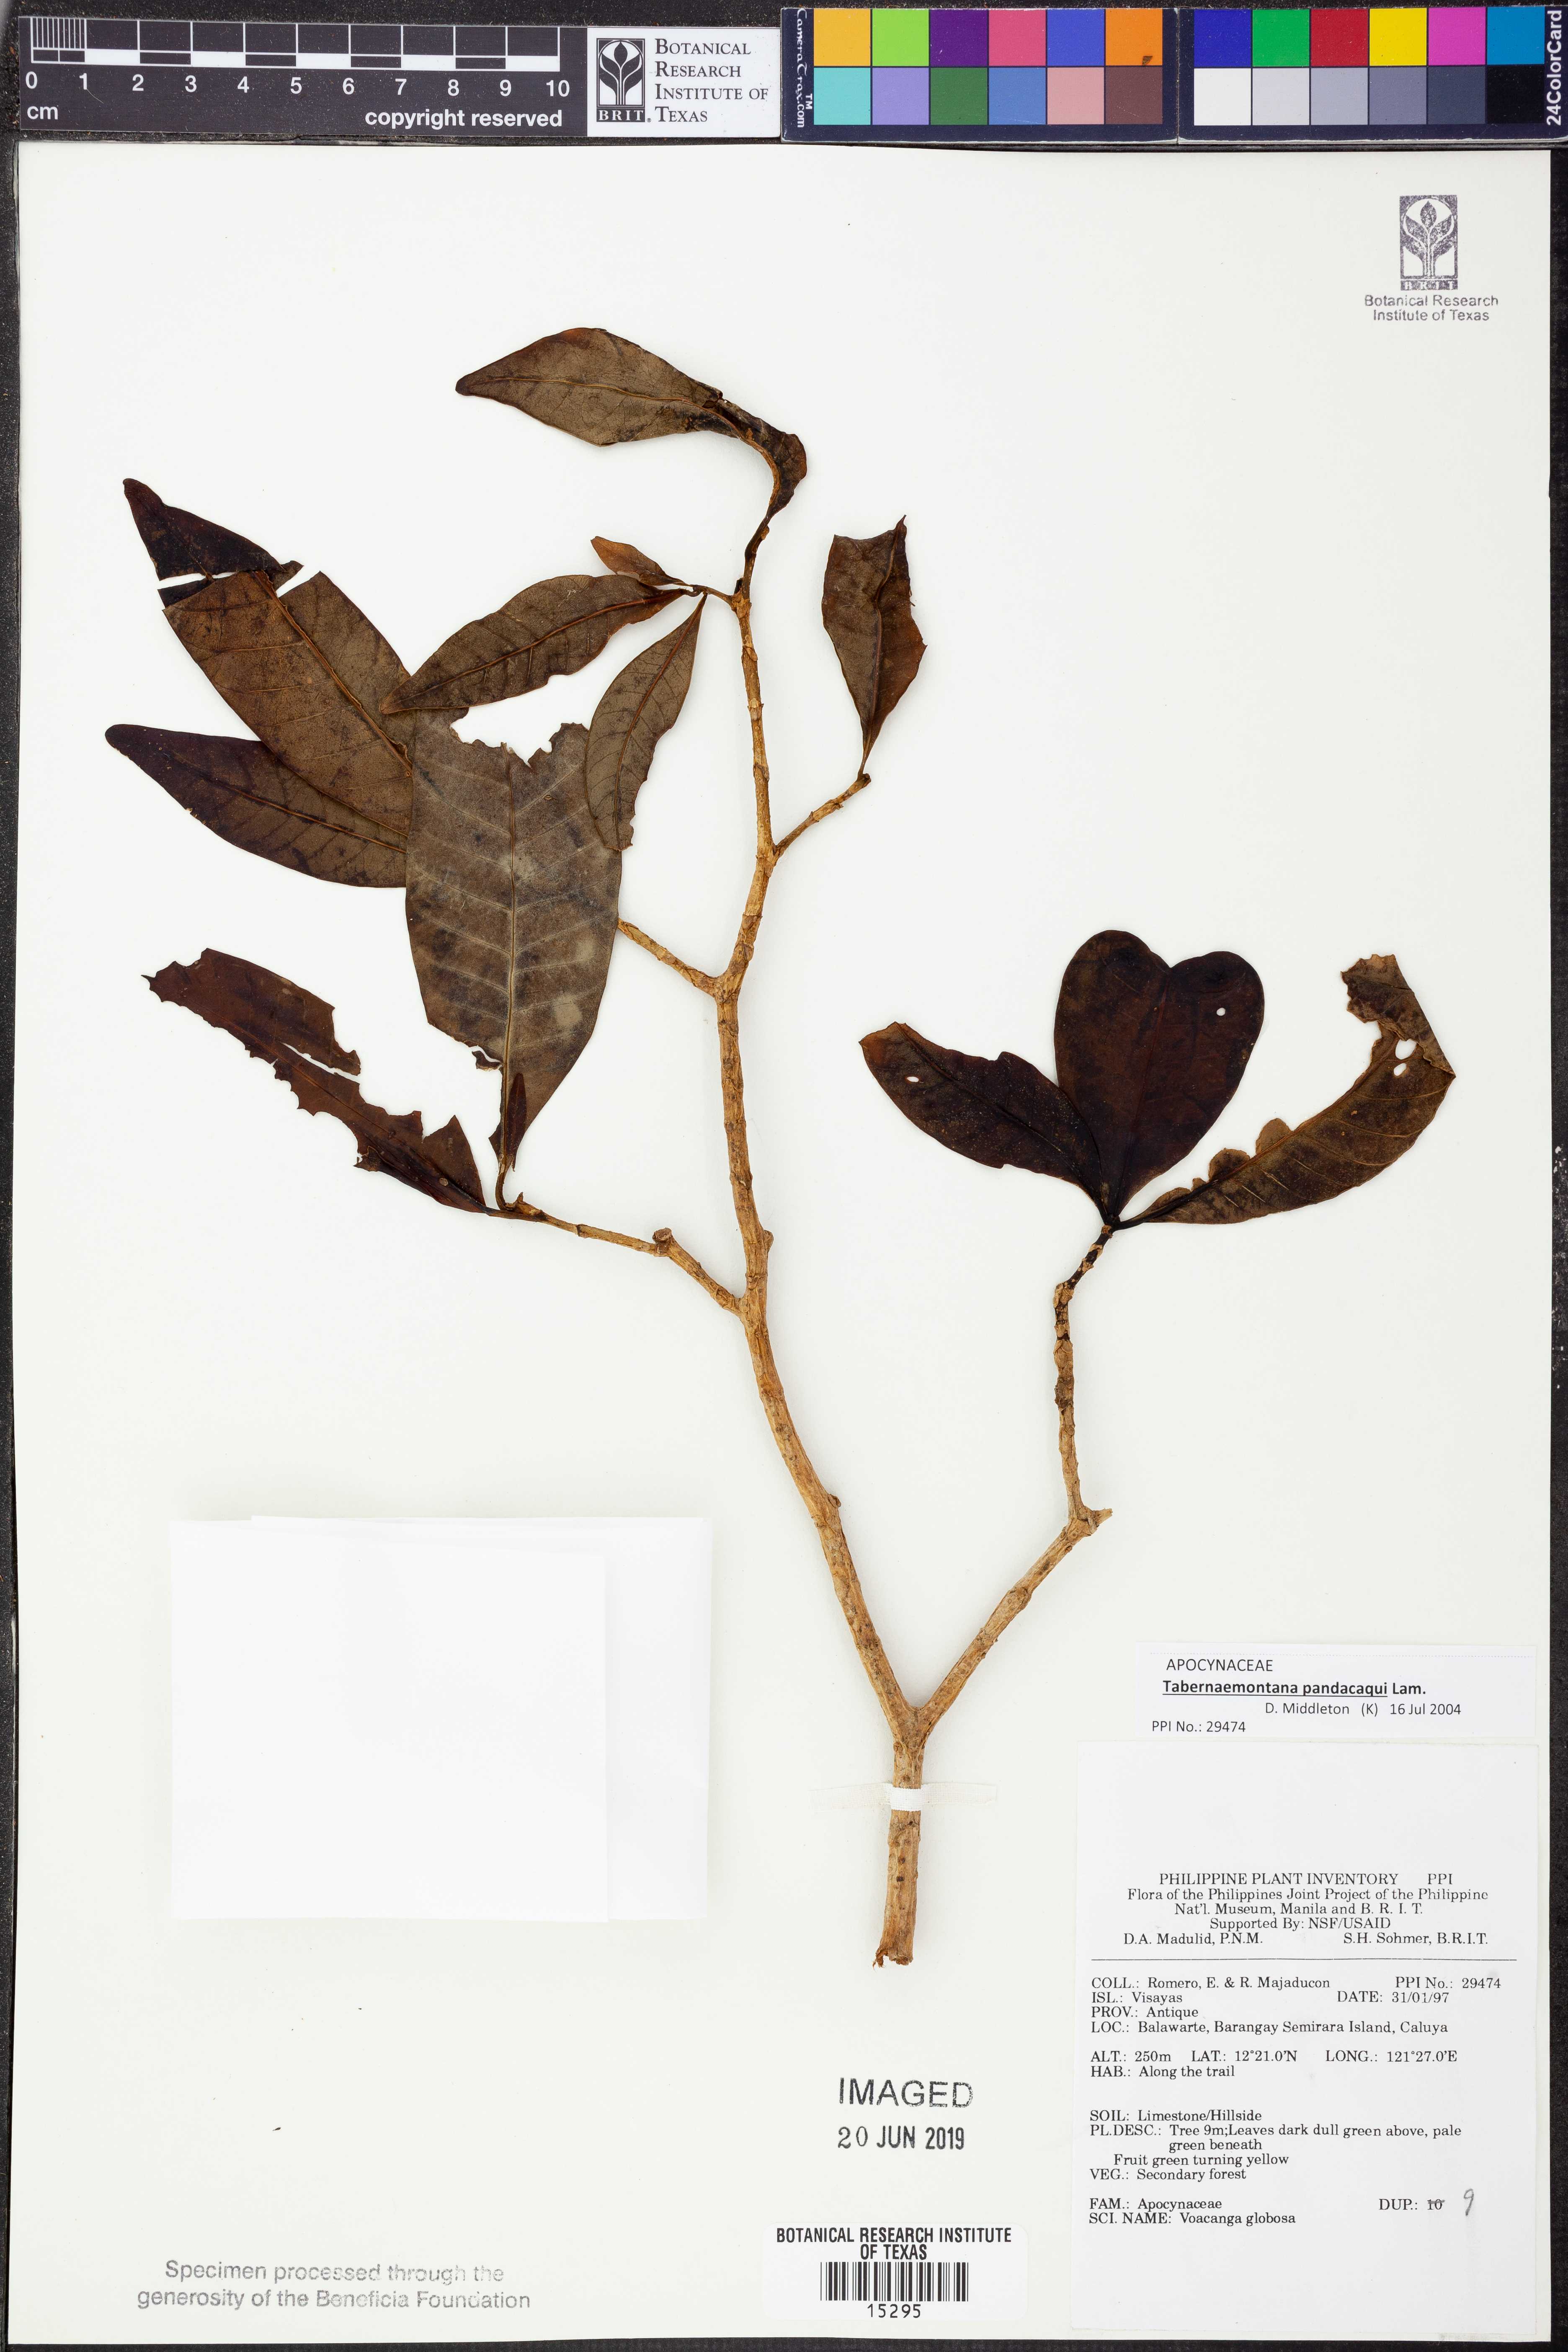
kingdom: Plantae
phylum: Tracheophyta
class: Magnoliopsida
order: Gentianales
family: Apocynaceae
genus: Tabernaemontana
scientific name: Tabernaemontana pandacaqui
